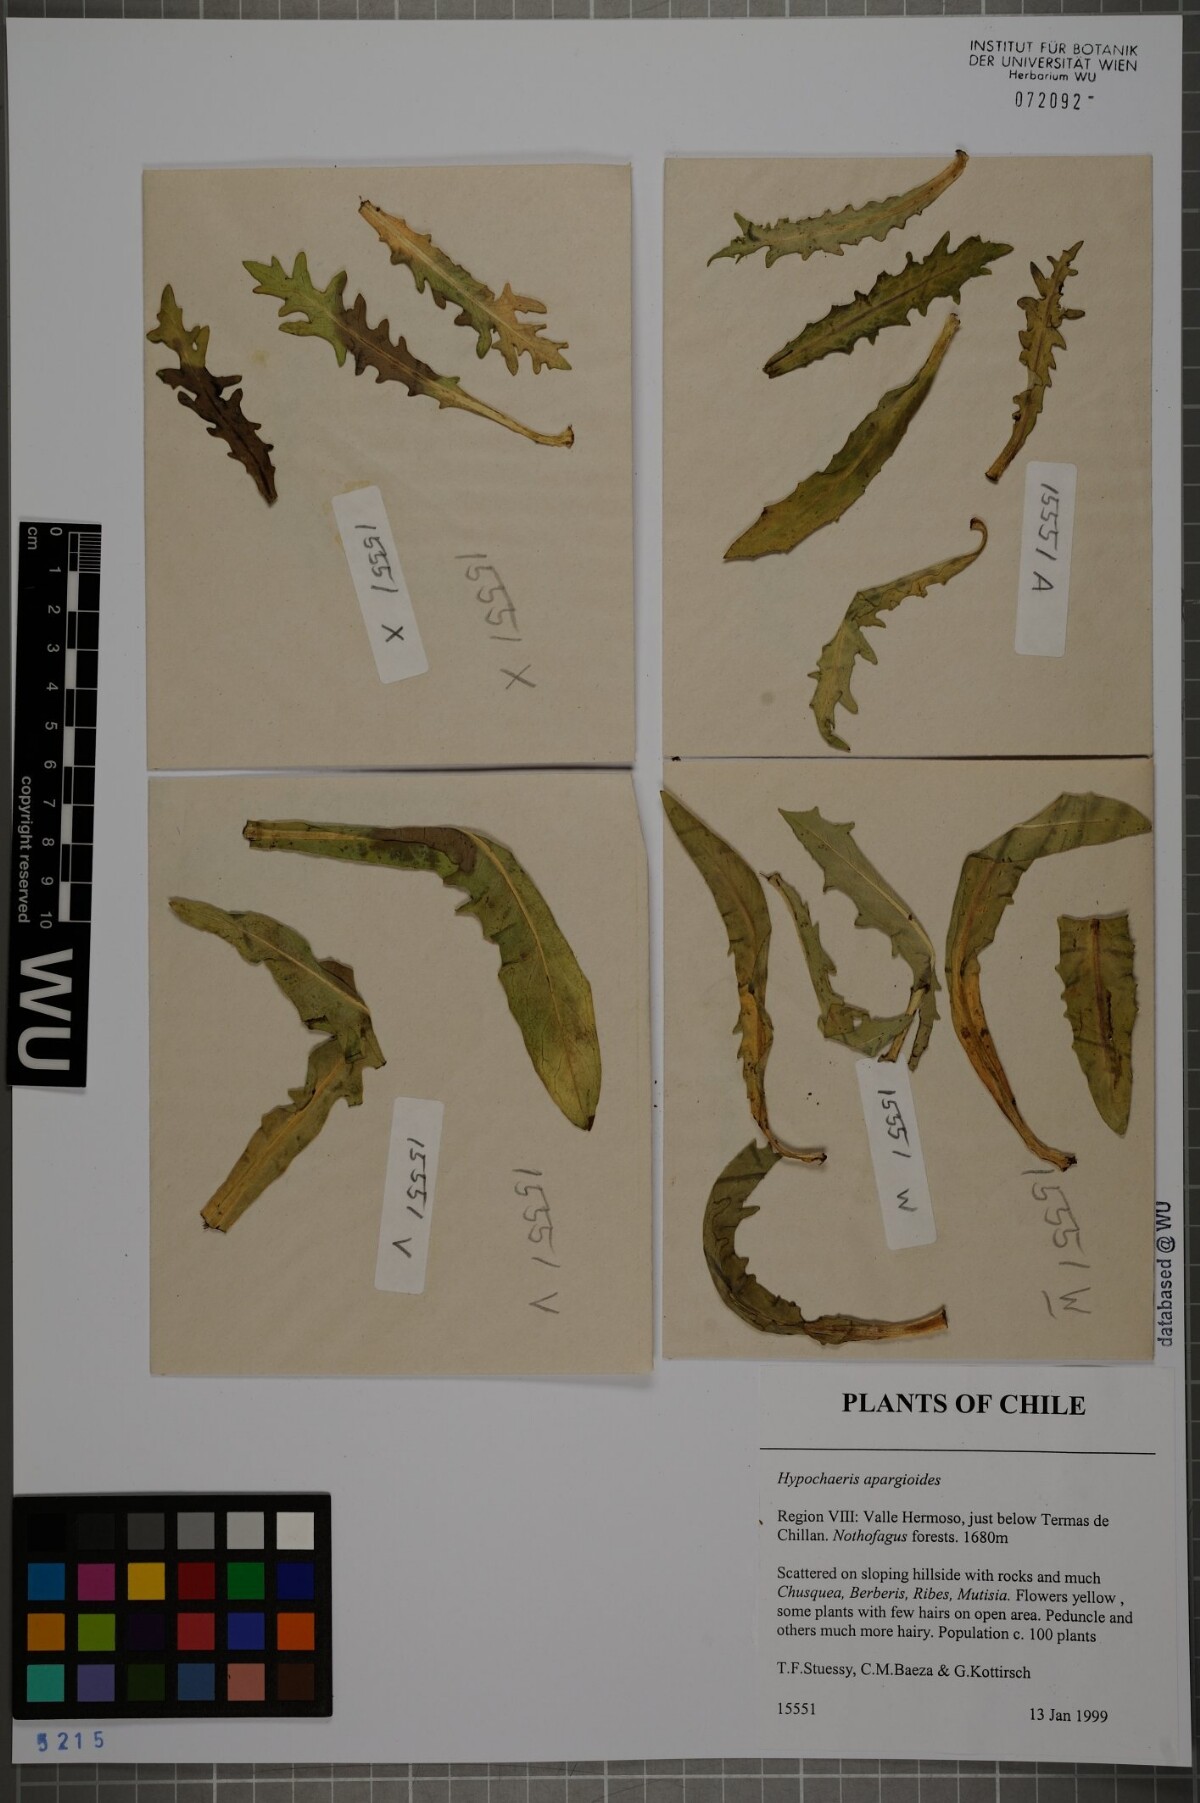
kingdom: Plantae
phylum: Tracheophyta
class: Magnoliopsida
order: Asterales
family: Asteraceae
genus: Hypochaeris
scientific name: Hypochaeris apargioides
